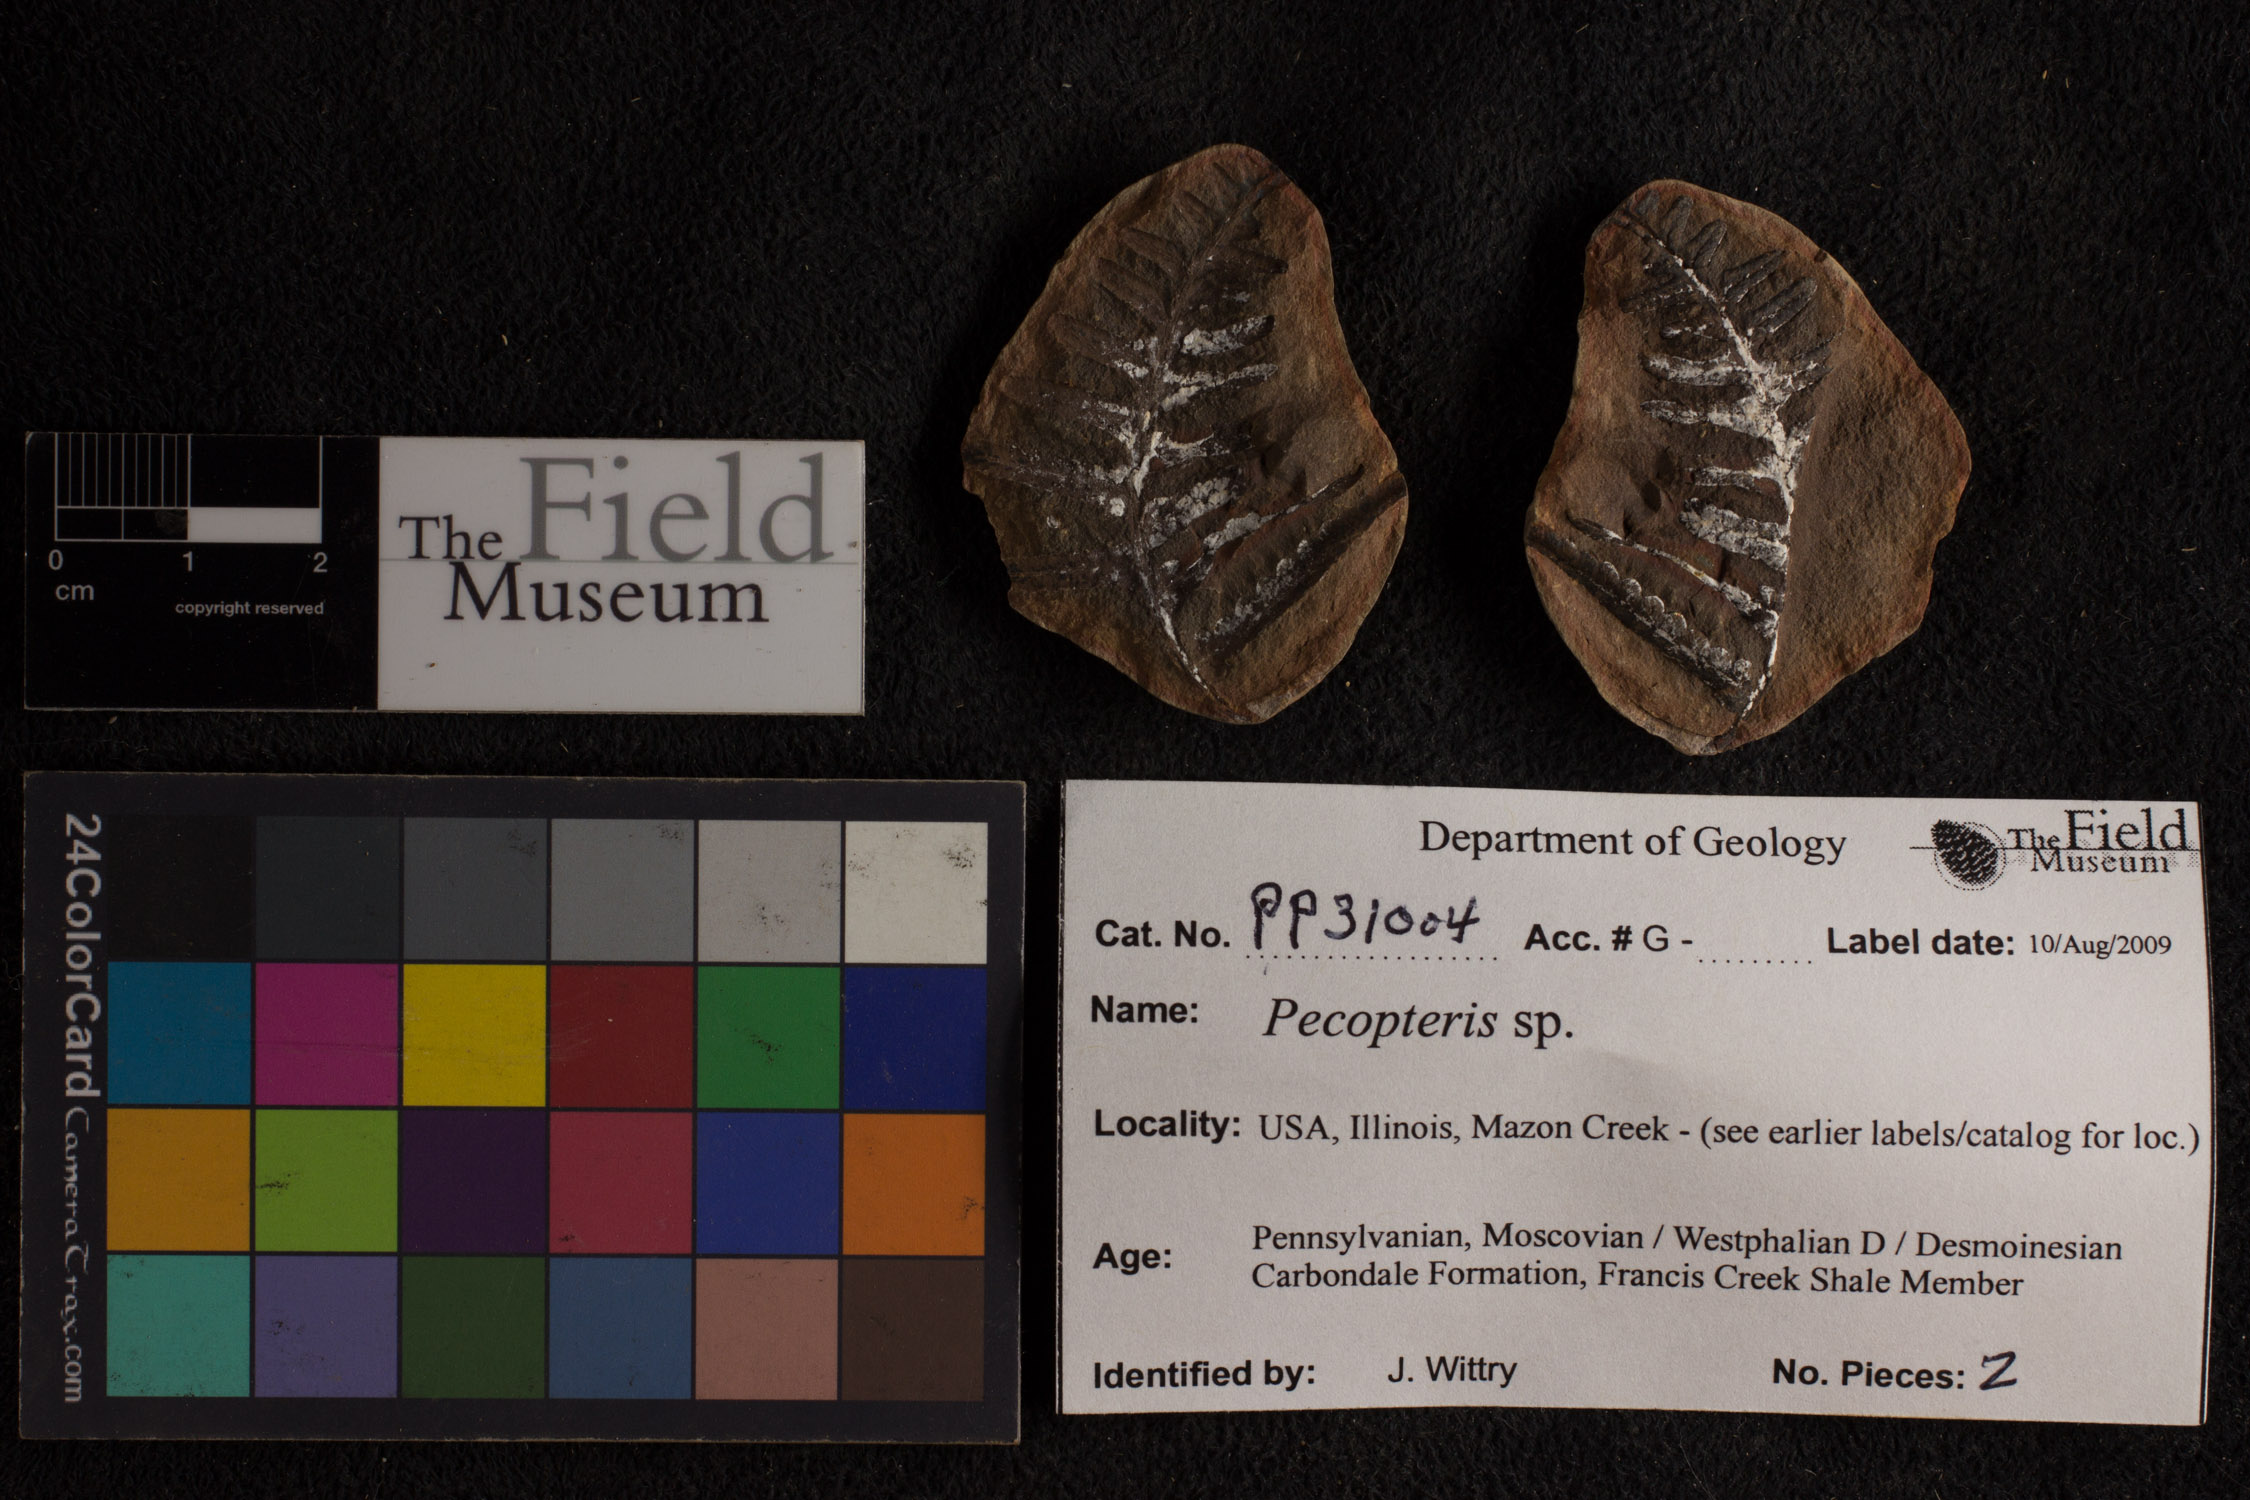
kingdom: Plantae
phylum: Tracheophyta
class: Polypodiopsida
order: Marattiales
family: Asterothecaceae
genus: Pecopteris
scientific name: Pecopteris
